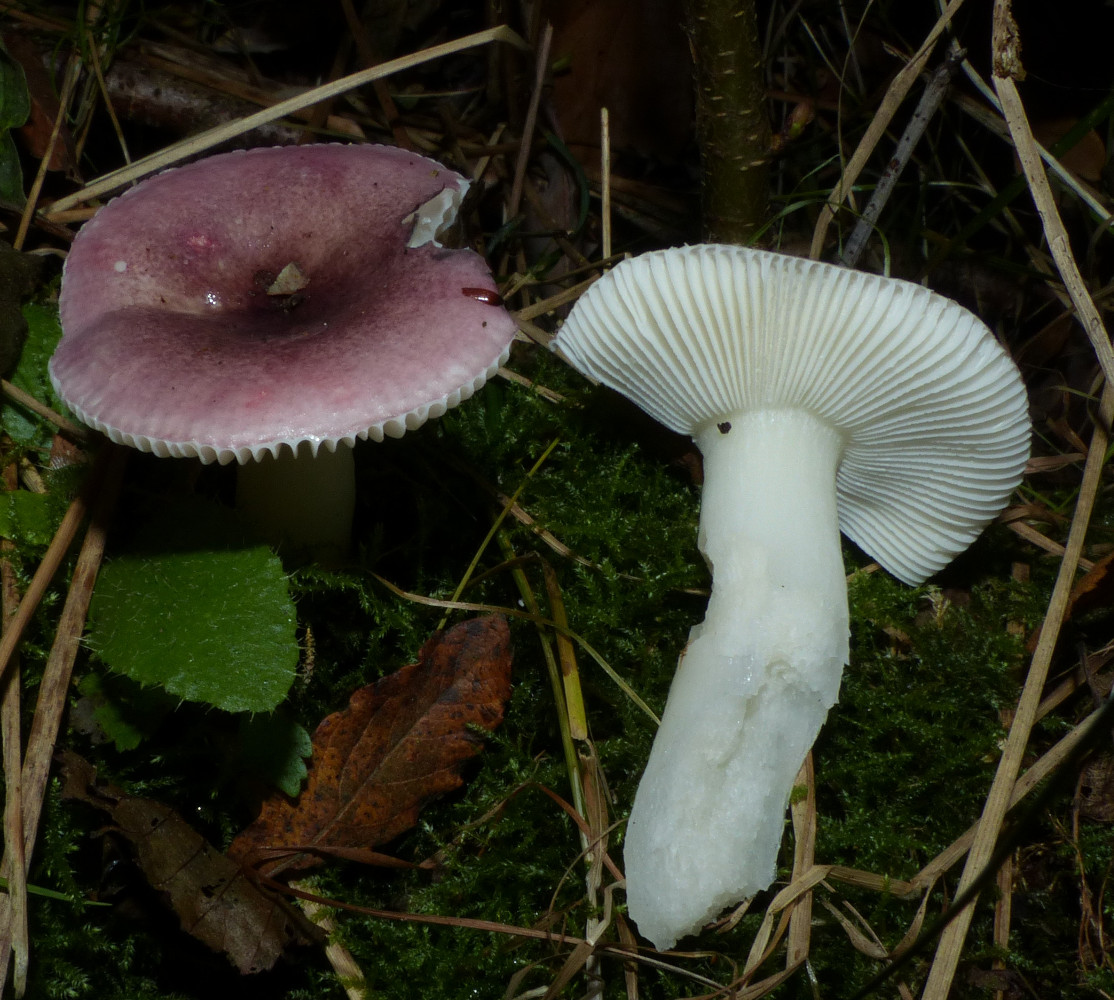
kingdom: Fungi
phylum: Basidiomycota
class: Agaricomycetes
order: Russulales
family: Russulaceae
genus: Russula
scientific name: Russula alnetorum
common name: elle-skørhat
